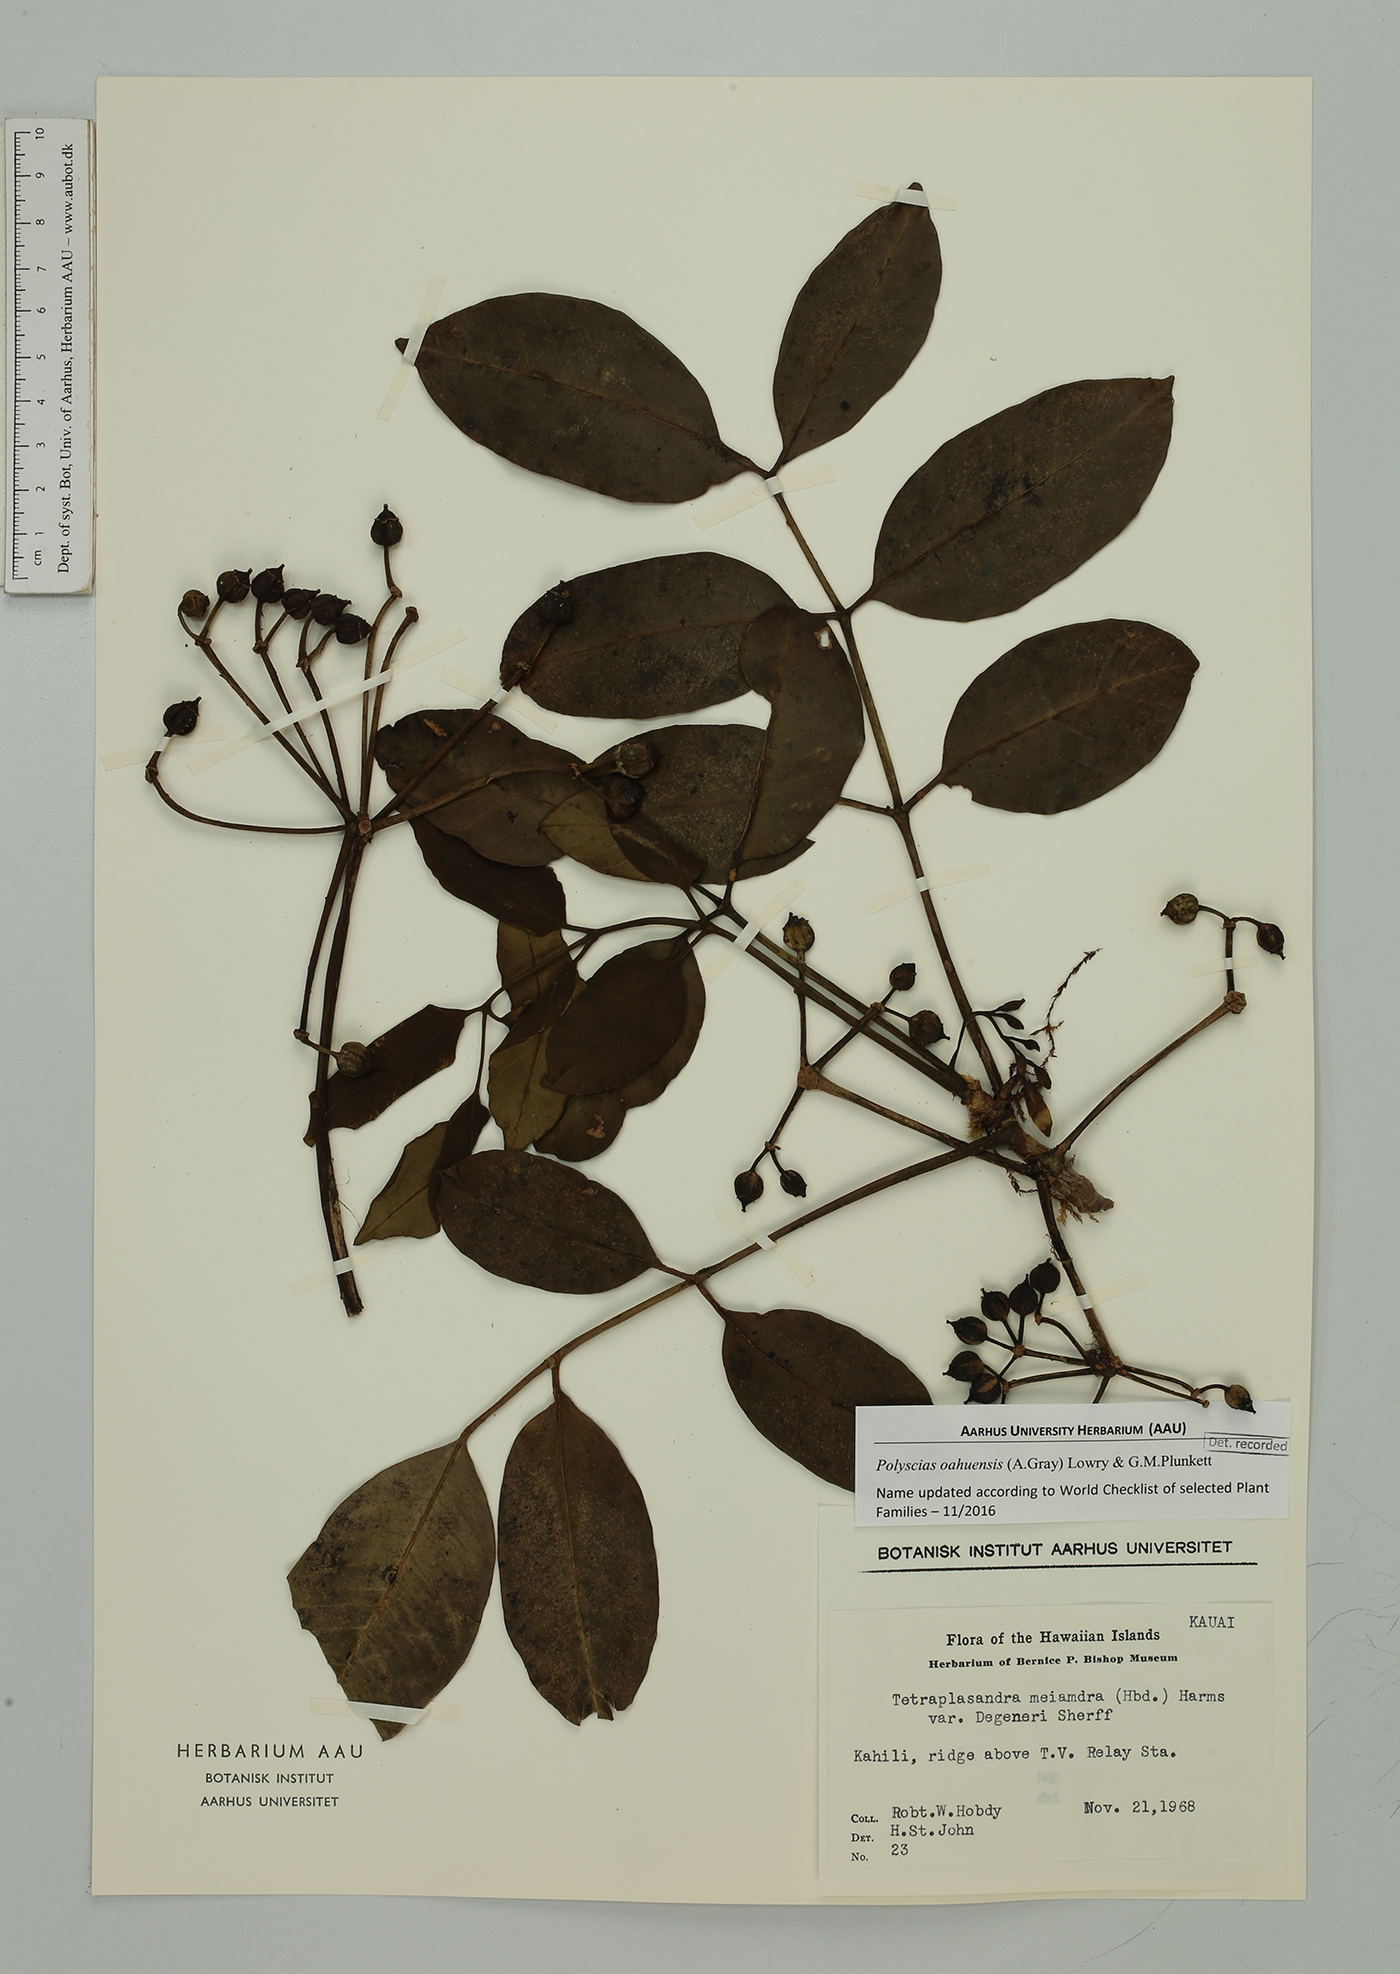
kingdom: Plantae
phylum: Tracheophyta
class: Magnoliopsida
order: Apiales
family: Araliaceae
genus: Polyscias
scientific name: Polyscias oahuensis
